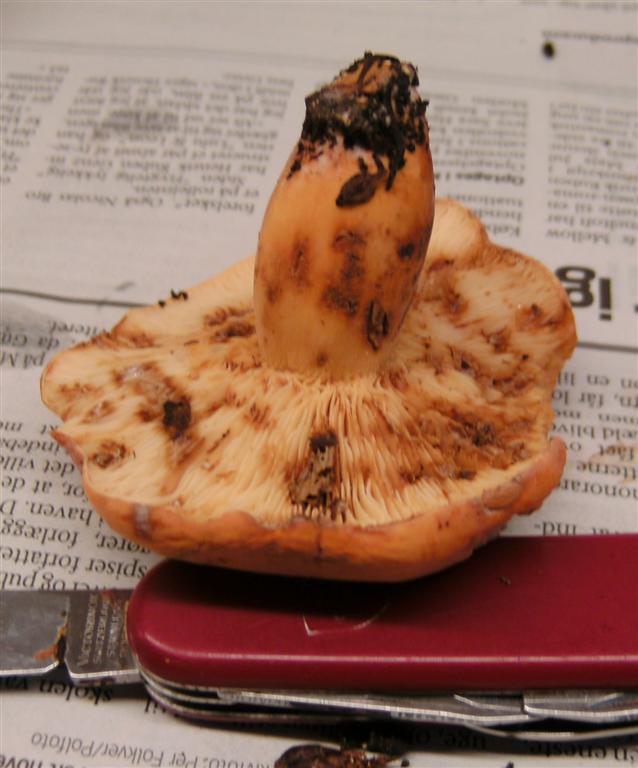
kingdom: Fungi
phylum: Basidiomycota
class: Agaricomycetes
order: Russulales
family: Russulaceae
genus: Lactifluus
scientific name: Lactifluus volemus
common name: spiselig mælkehat
